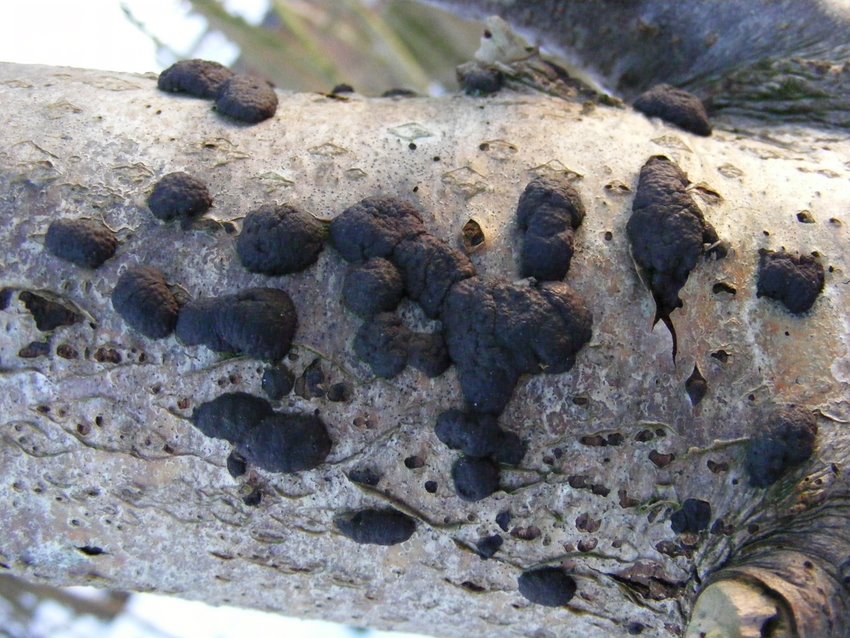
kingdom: Fungi
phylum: Ascomycota
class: Sordariomycetes
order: Xylariales
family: Hypoxylaceae
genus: Jackrogersella
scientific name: Jackrogersella multiformis
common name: foranderlig kulbær
